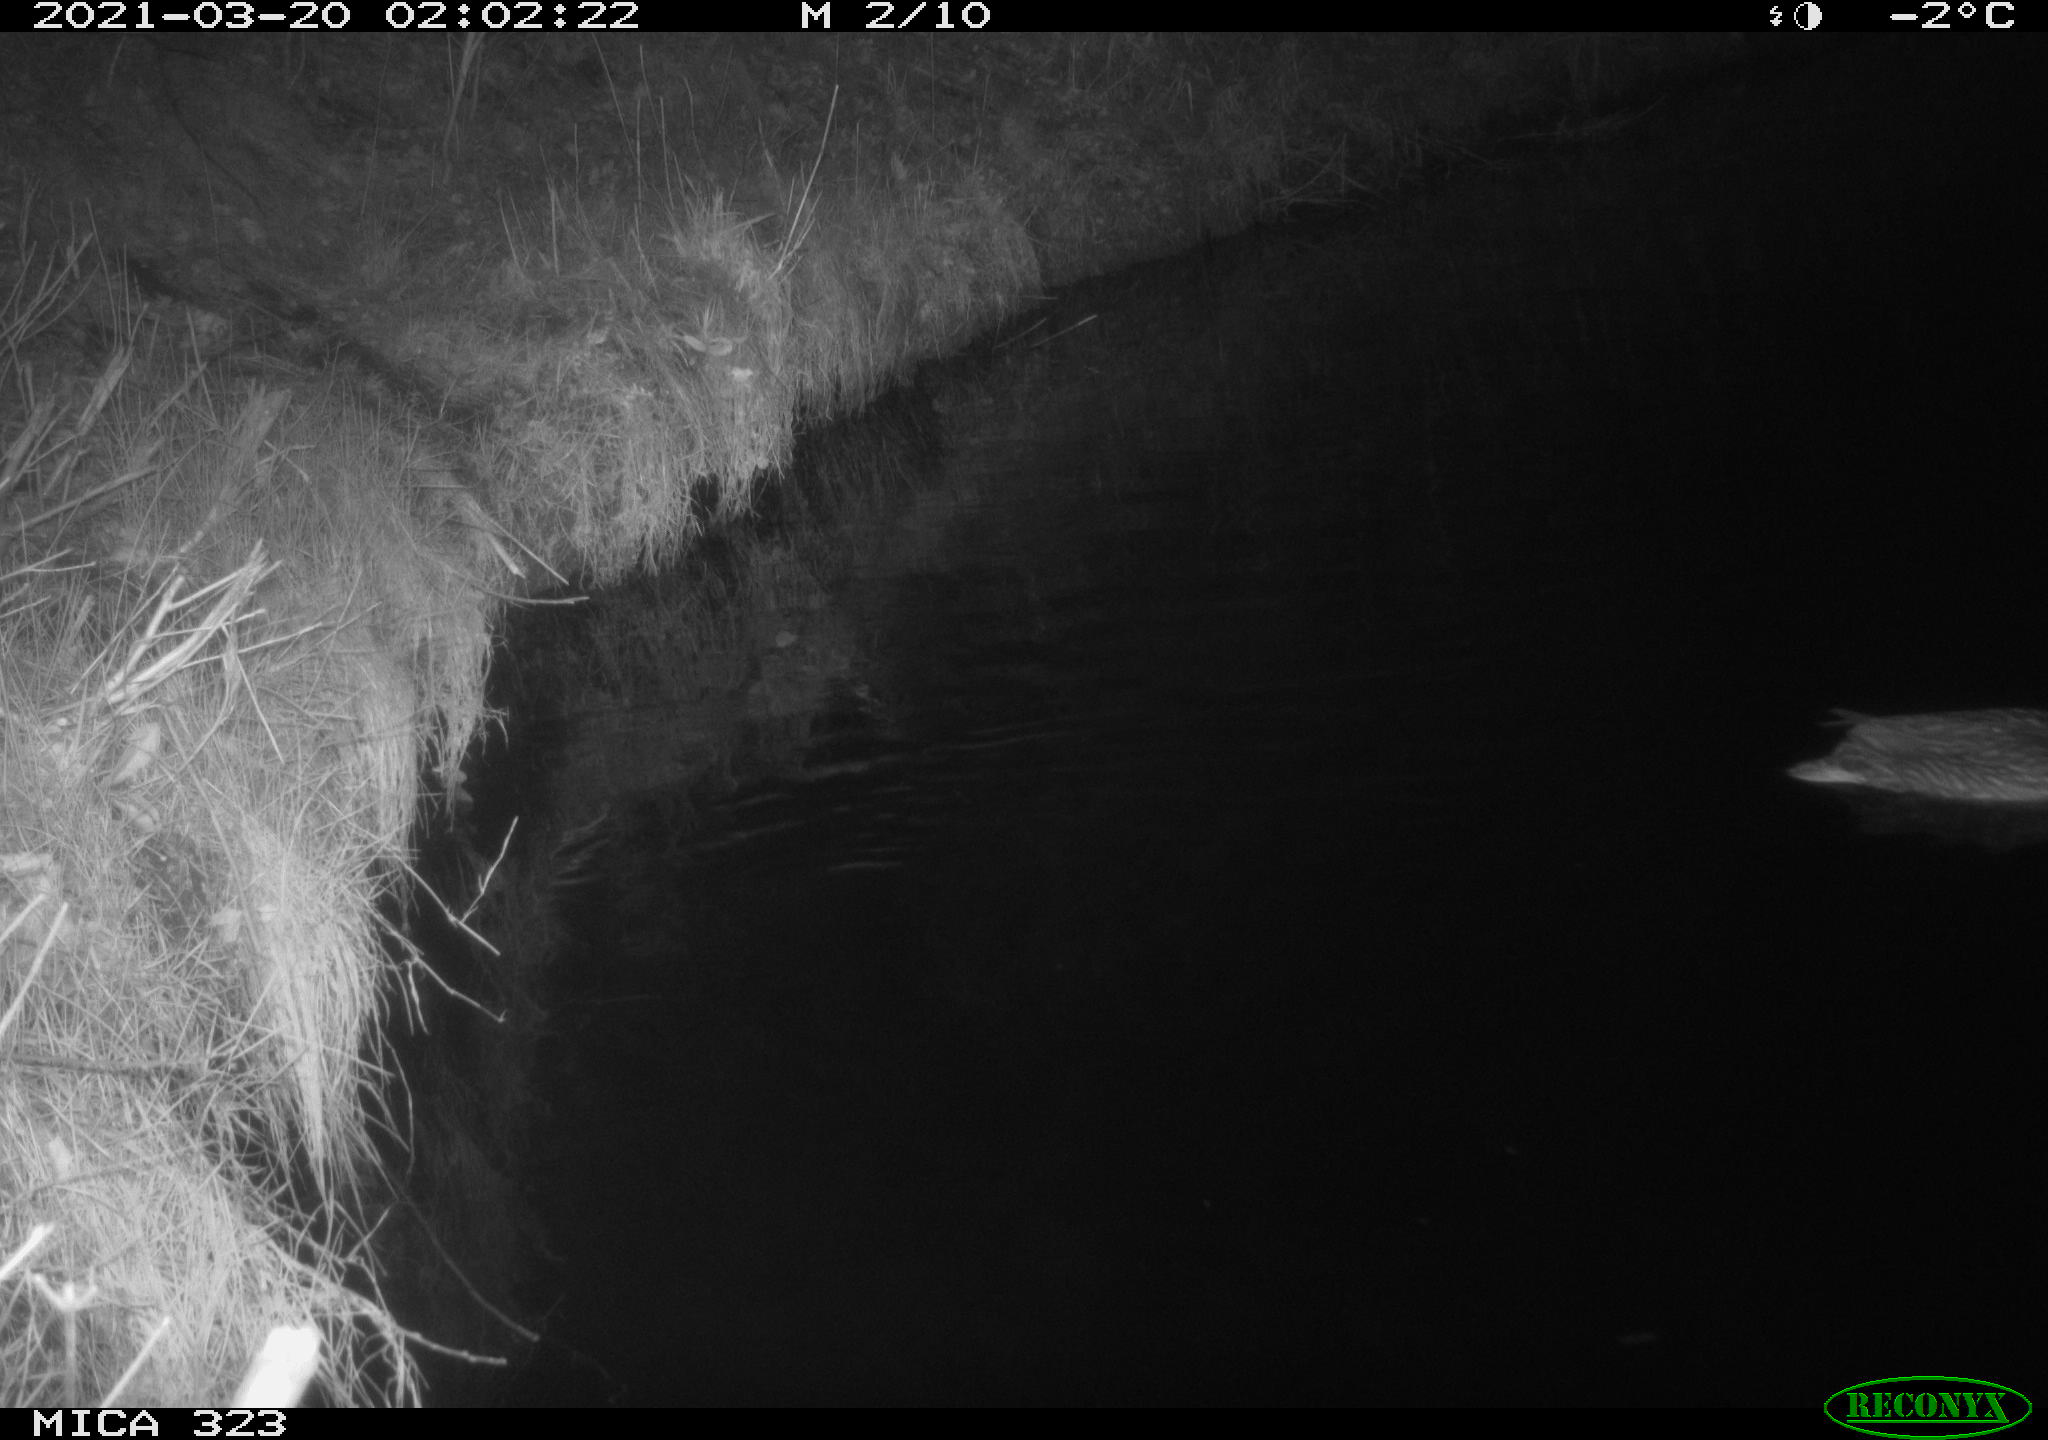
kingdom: Animalia
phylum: Chordata
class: Aves
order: Anseriformes
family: Anatidae
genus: Anas
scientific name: Anas platyrhynchos
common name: Mallard
